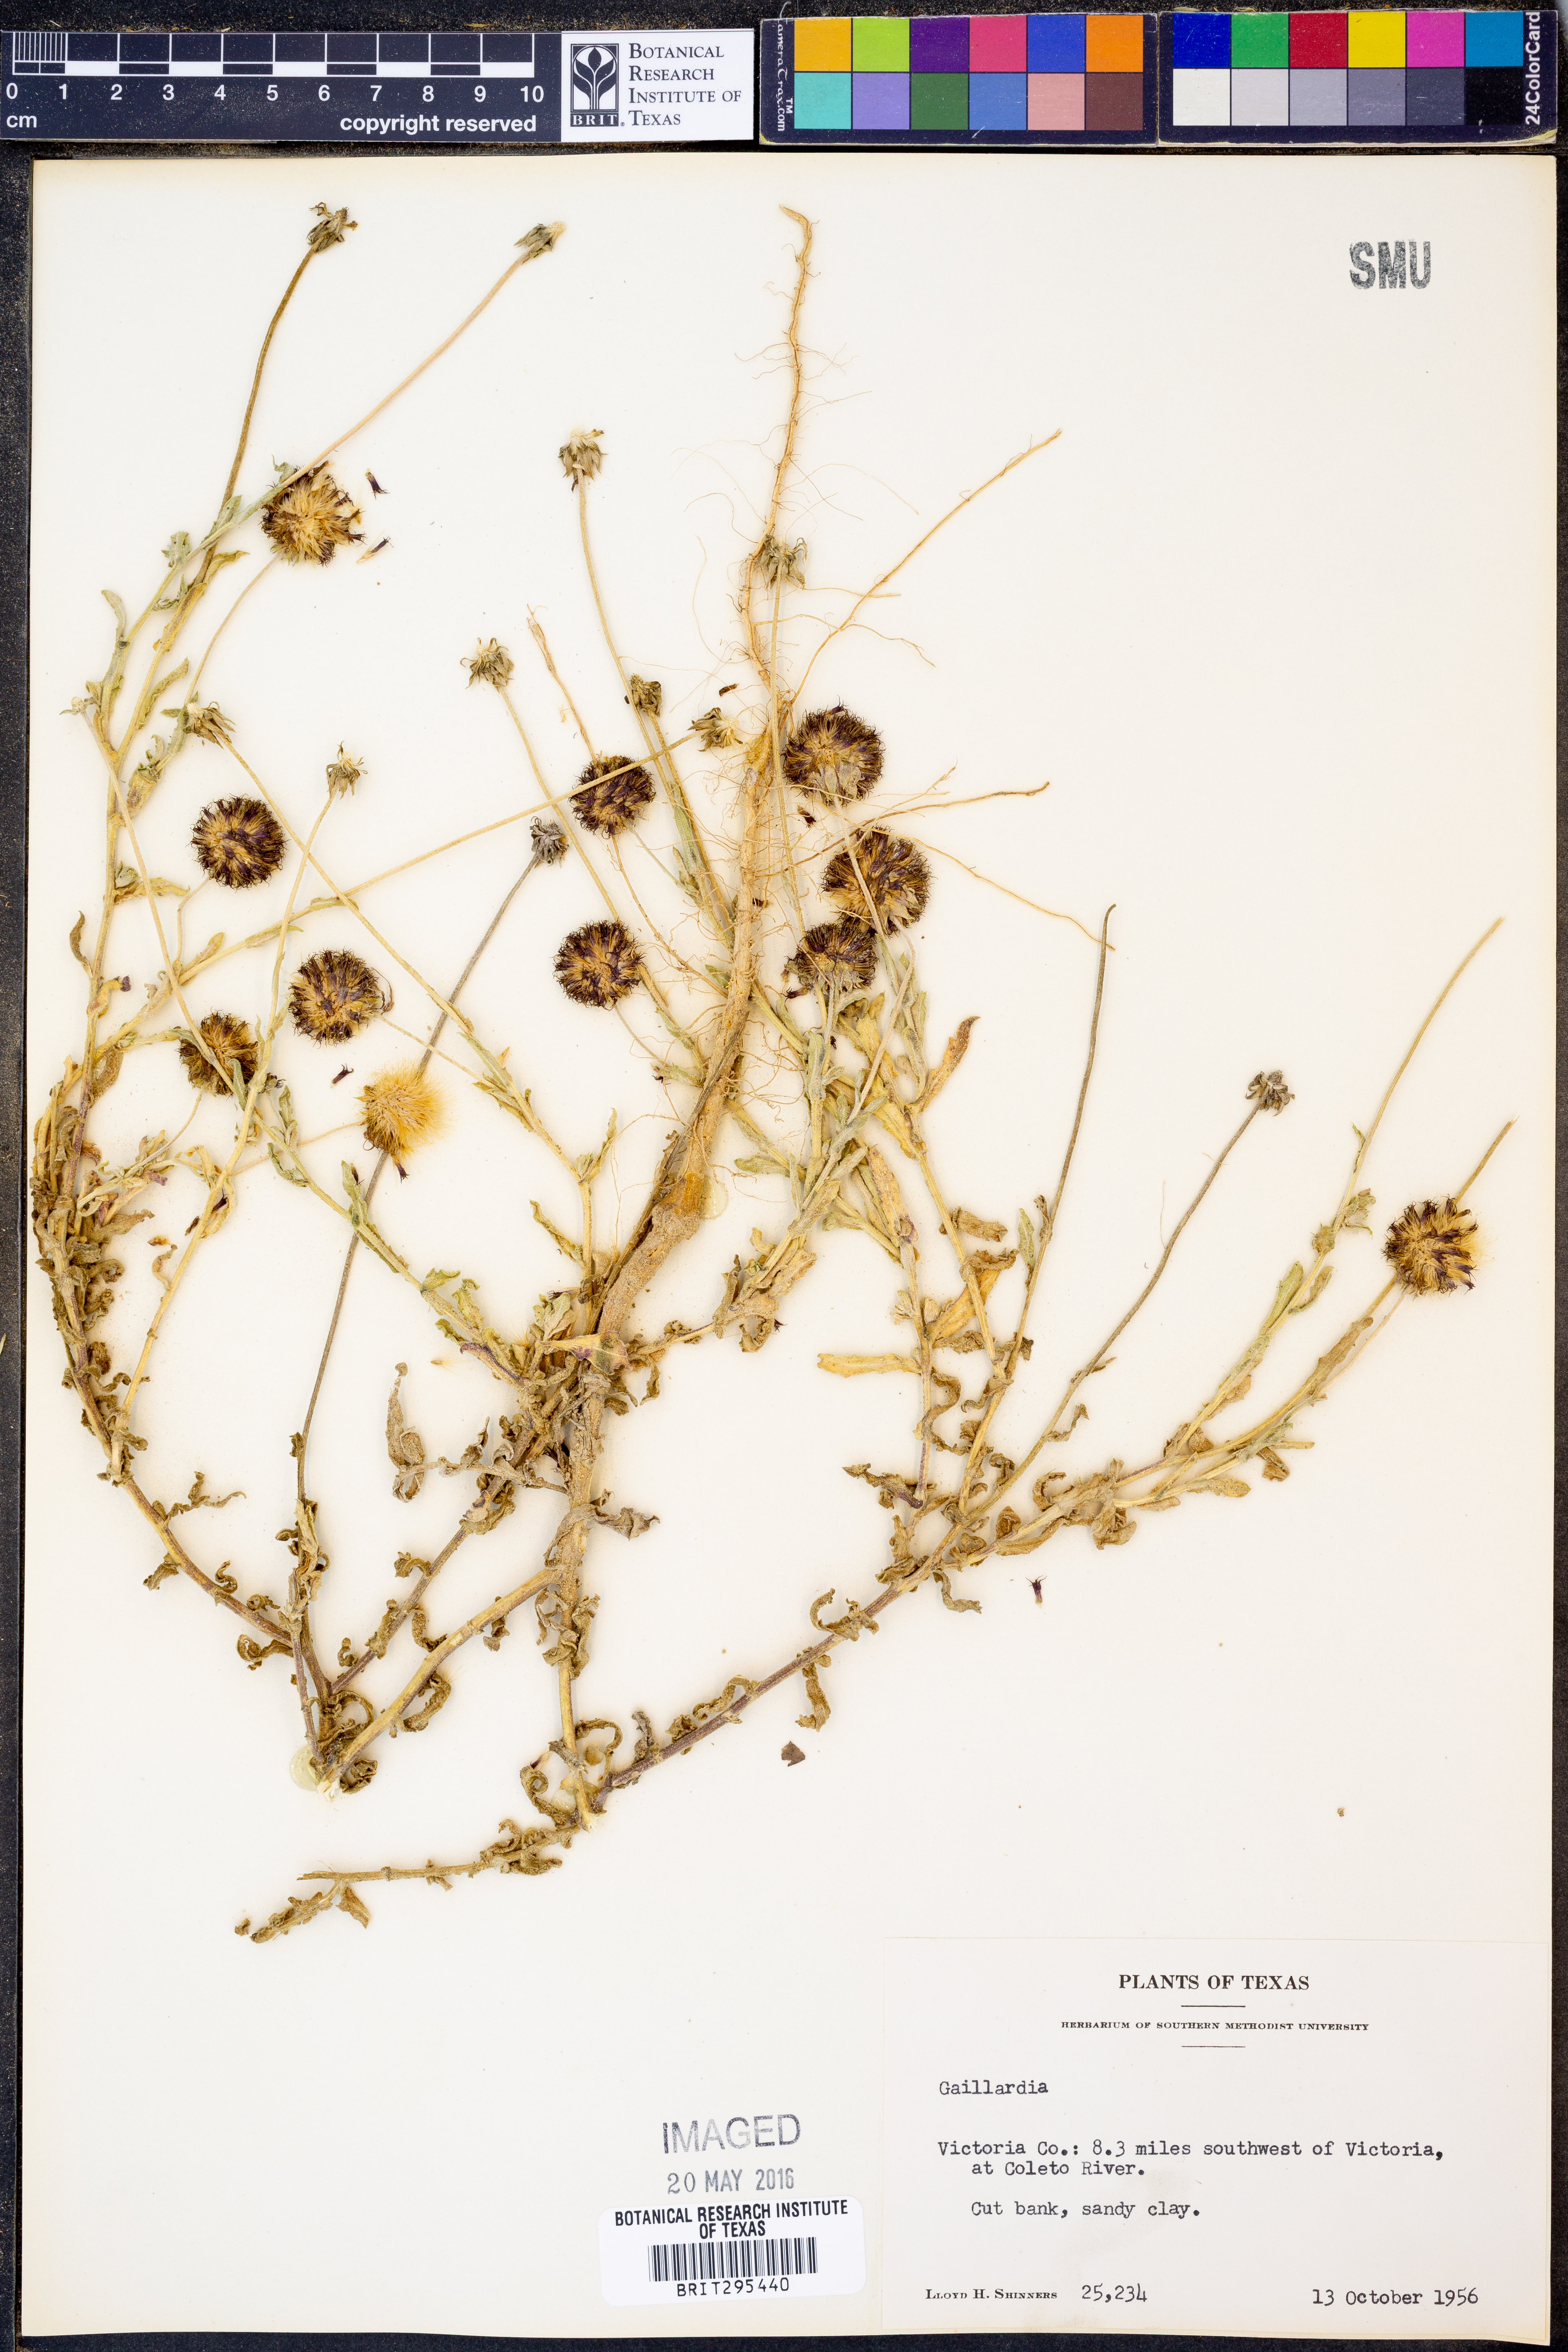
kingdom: Plantae
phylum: Tracheophyta
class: Magnoliopsida
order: Asterales
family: Asteraceae
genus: Gaillardia
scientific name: Gaillardia
